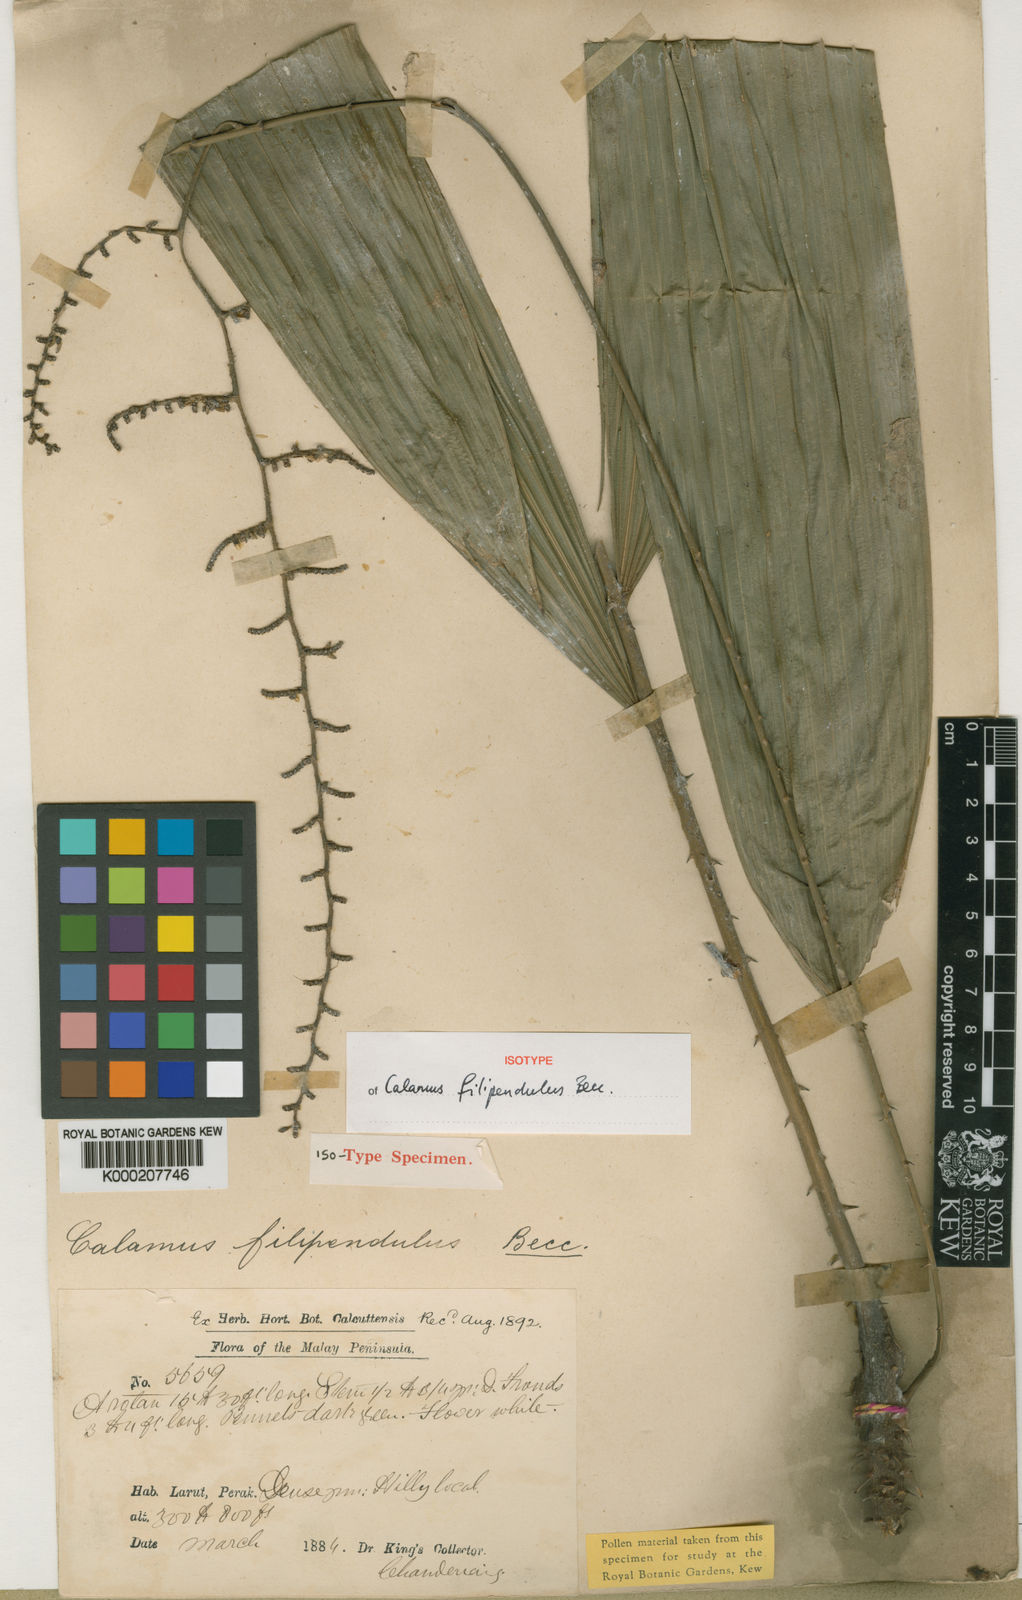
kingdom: Plantae
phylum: Tracheophyta
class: Liliopsida
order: Arecales
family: Arecaceae
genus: Calamus
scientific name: Calamus filipendulus
